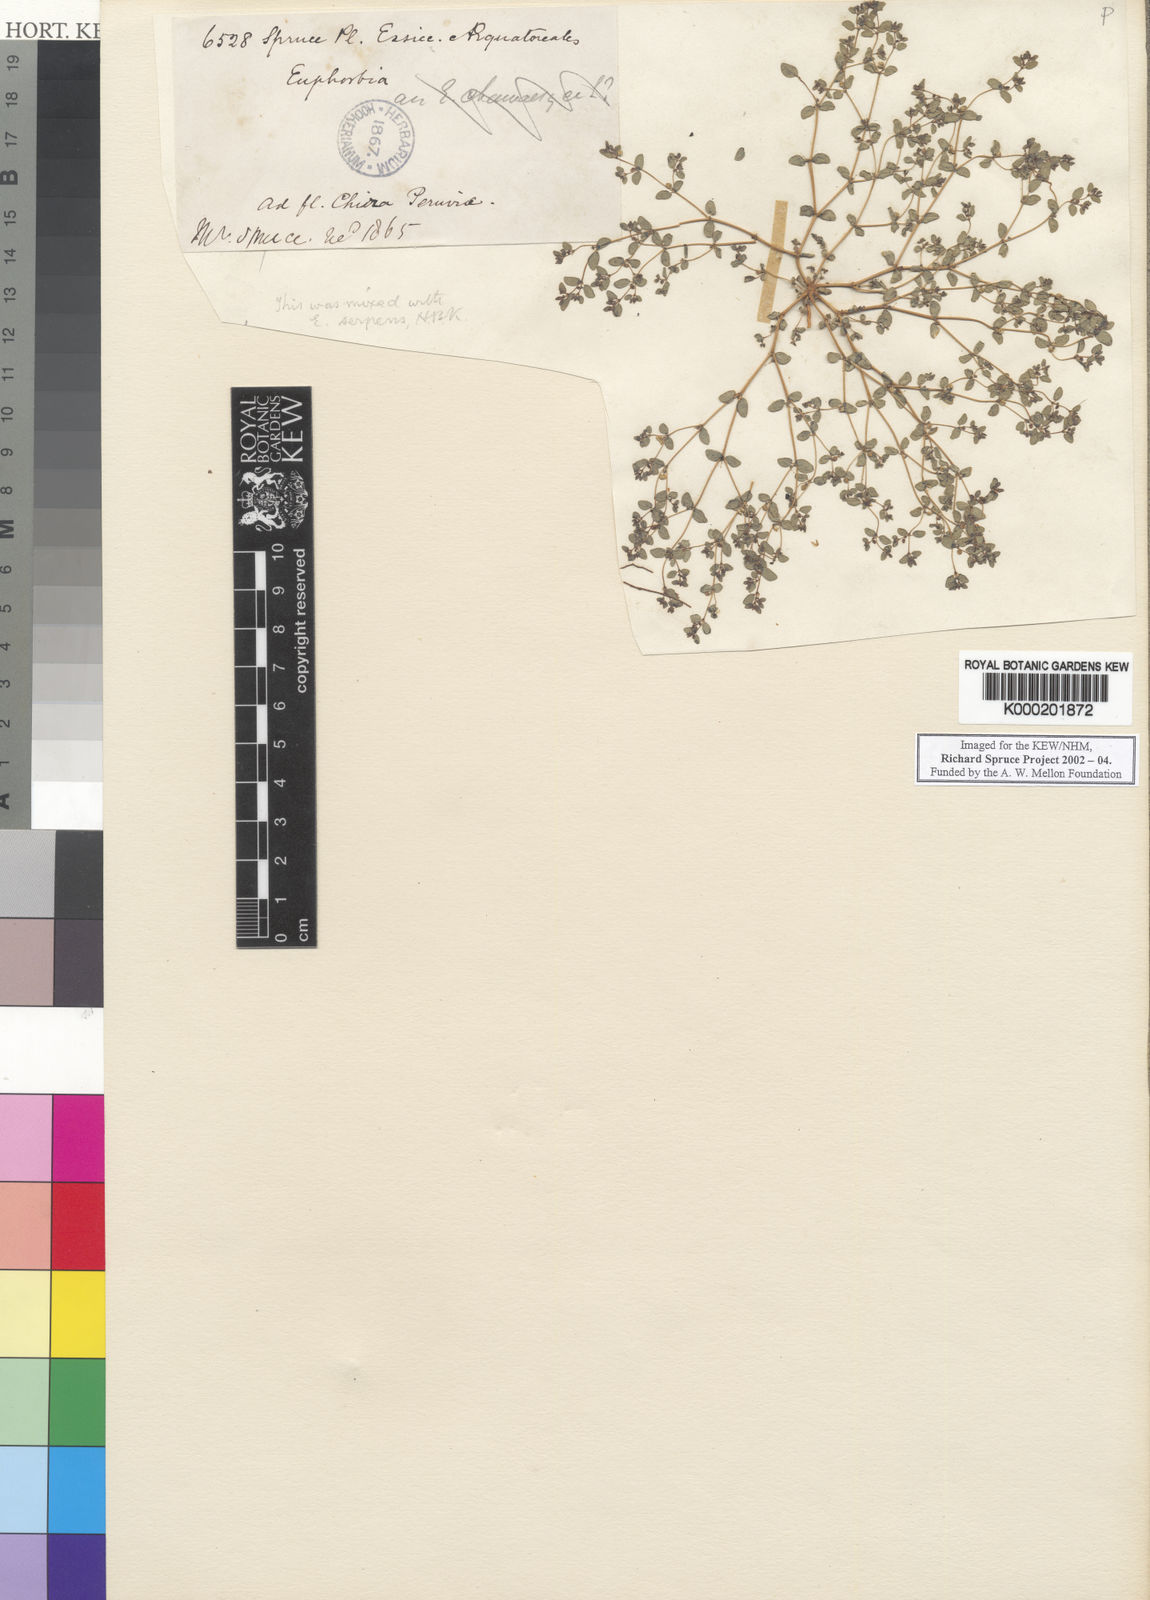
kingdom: Plantae
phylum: Tracheophyta
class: Magnoliopsida
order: Malpighiales
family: Euphorbiaceae
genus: Euphorbia
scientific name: Euphorbia
